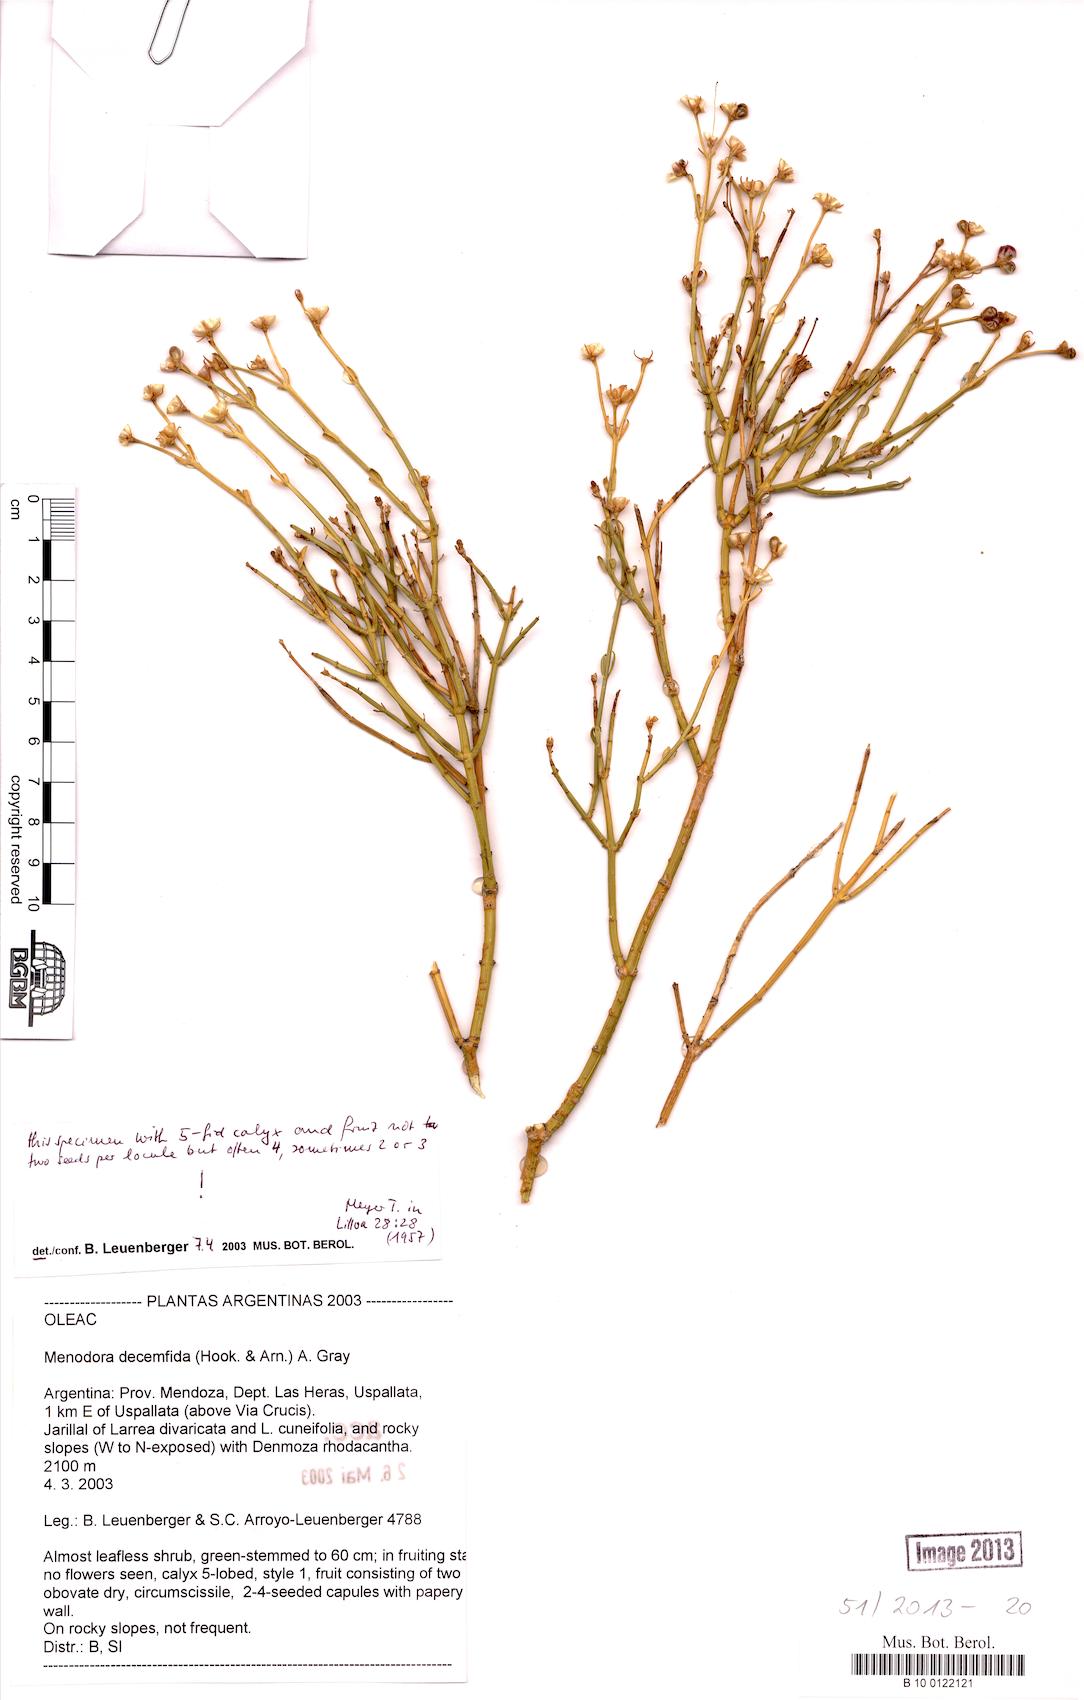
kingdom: Plantae
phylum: Tracheophyta
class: Magnoliopsida
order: Lamiales
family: Oleaceae
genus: Menodora
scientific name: Menodora decemfida
